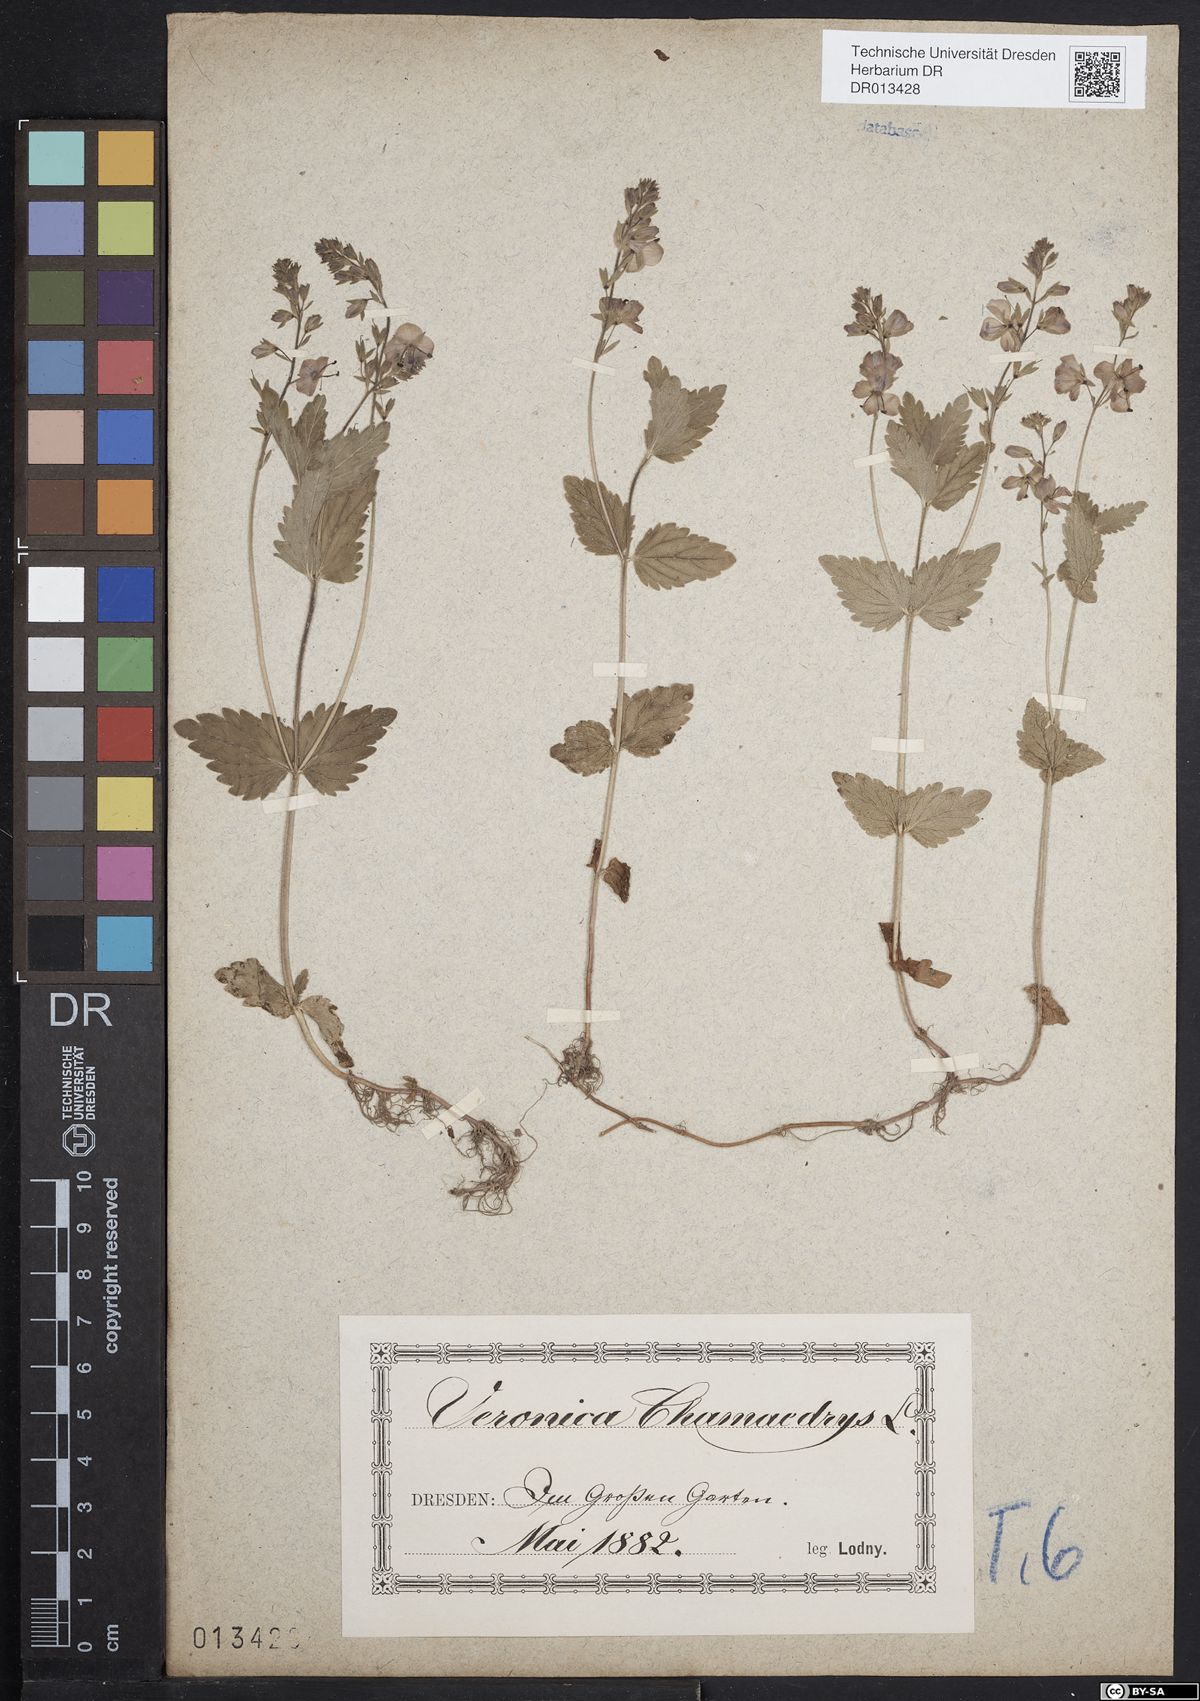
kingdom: Plantae
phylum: Tracheophyta
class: Magnoliopsida
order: Lamiales
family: Plantaginaceae
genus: Veronica
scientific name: Veronica chamaedrys
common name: Germander speedwell
